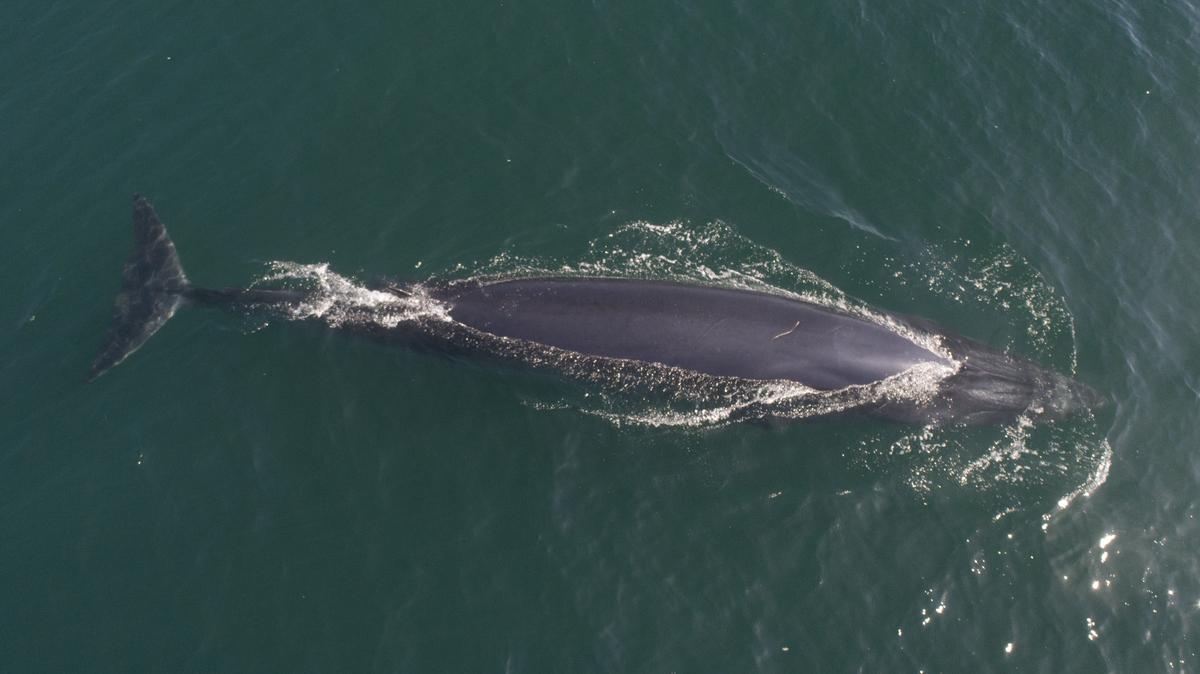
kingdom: Animalia
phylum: Chordata
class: Mammalia
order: Cetacea
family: Balaenopteridae
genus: Balaenoptera
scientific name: Balaenoptera edeni
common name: Bryde's whale
